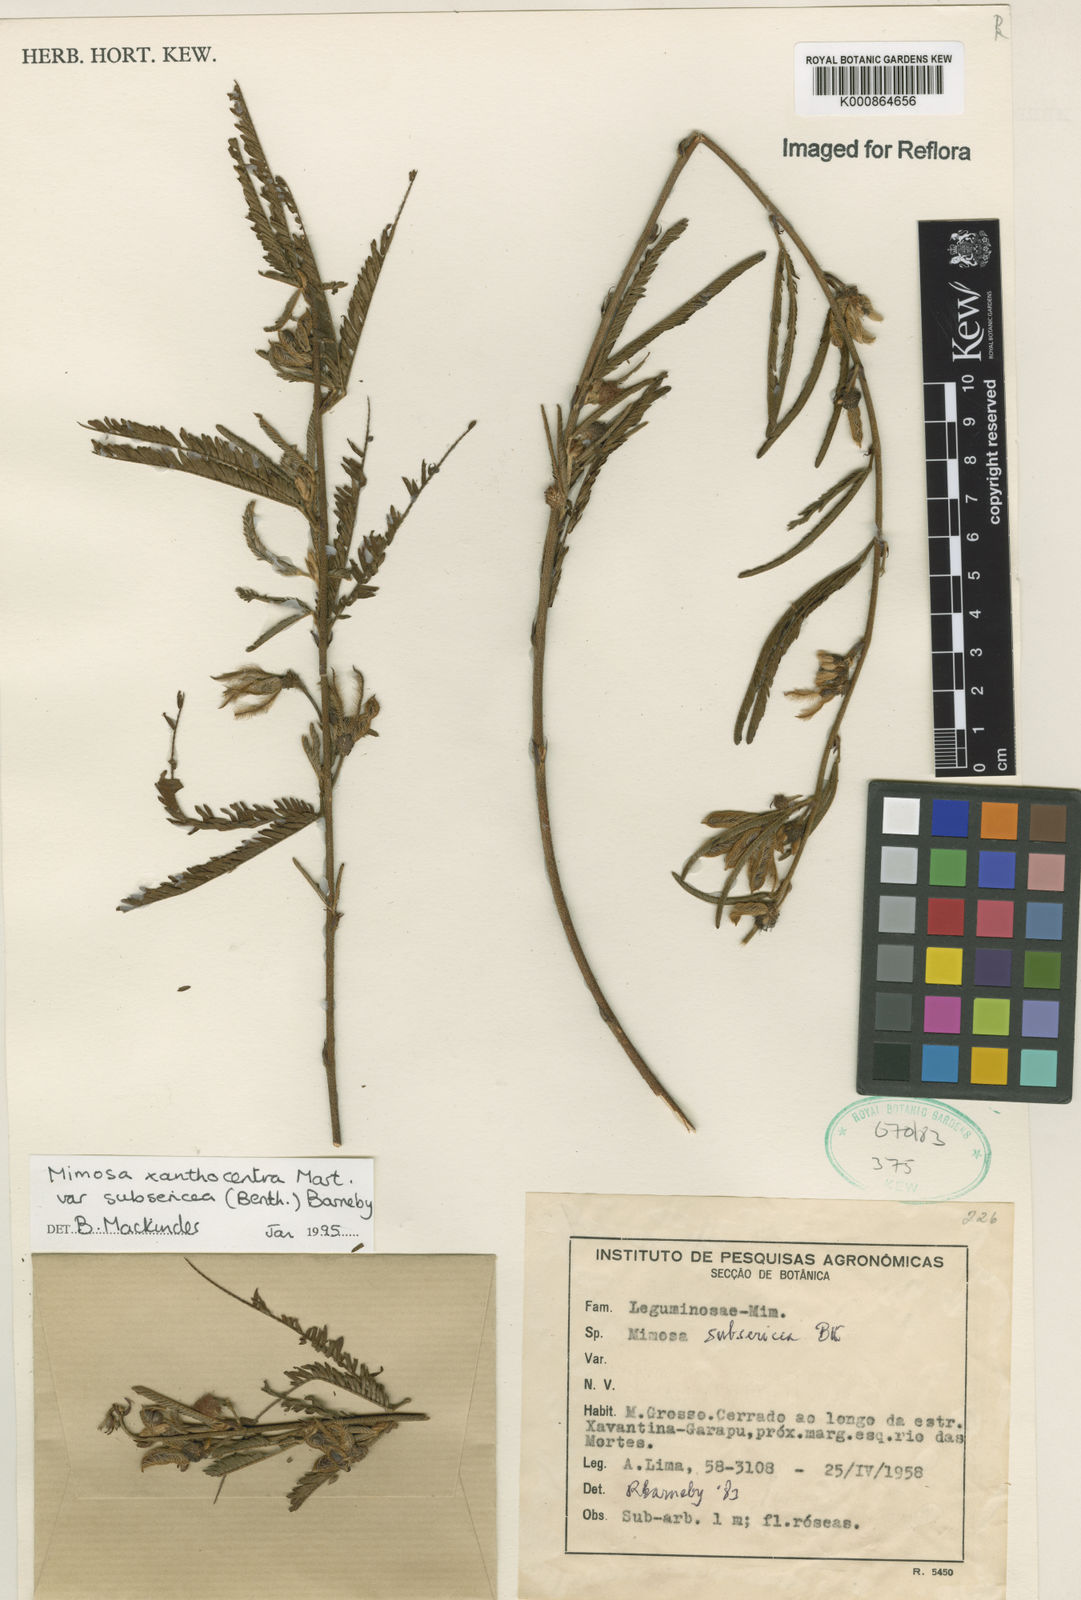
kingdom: Plantae
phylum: Tracheophyta
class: Magnoliopsida
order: Fabales
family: Fabaceae
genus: Mimosa
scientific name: Mimosa xanthocentra
